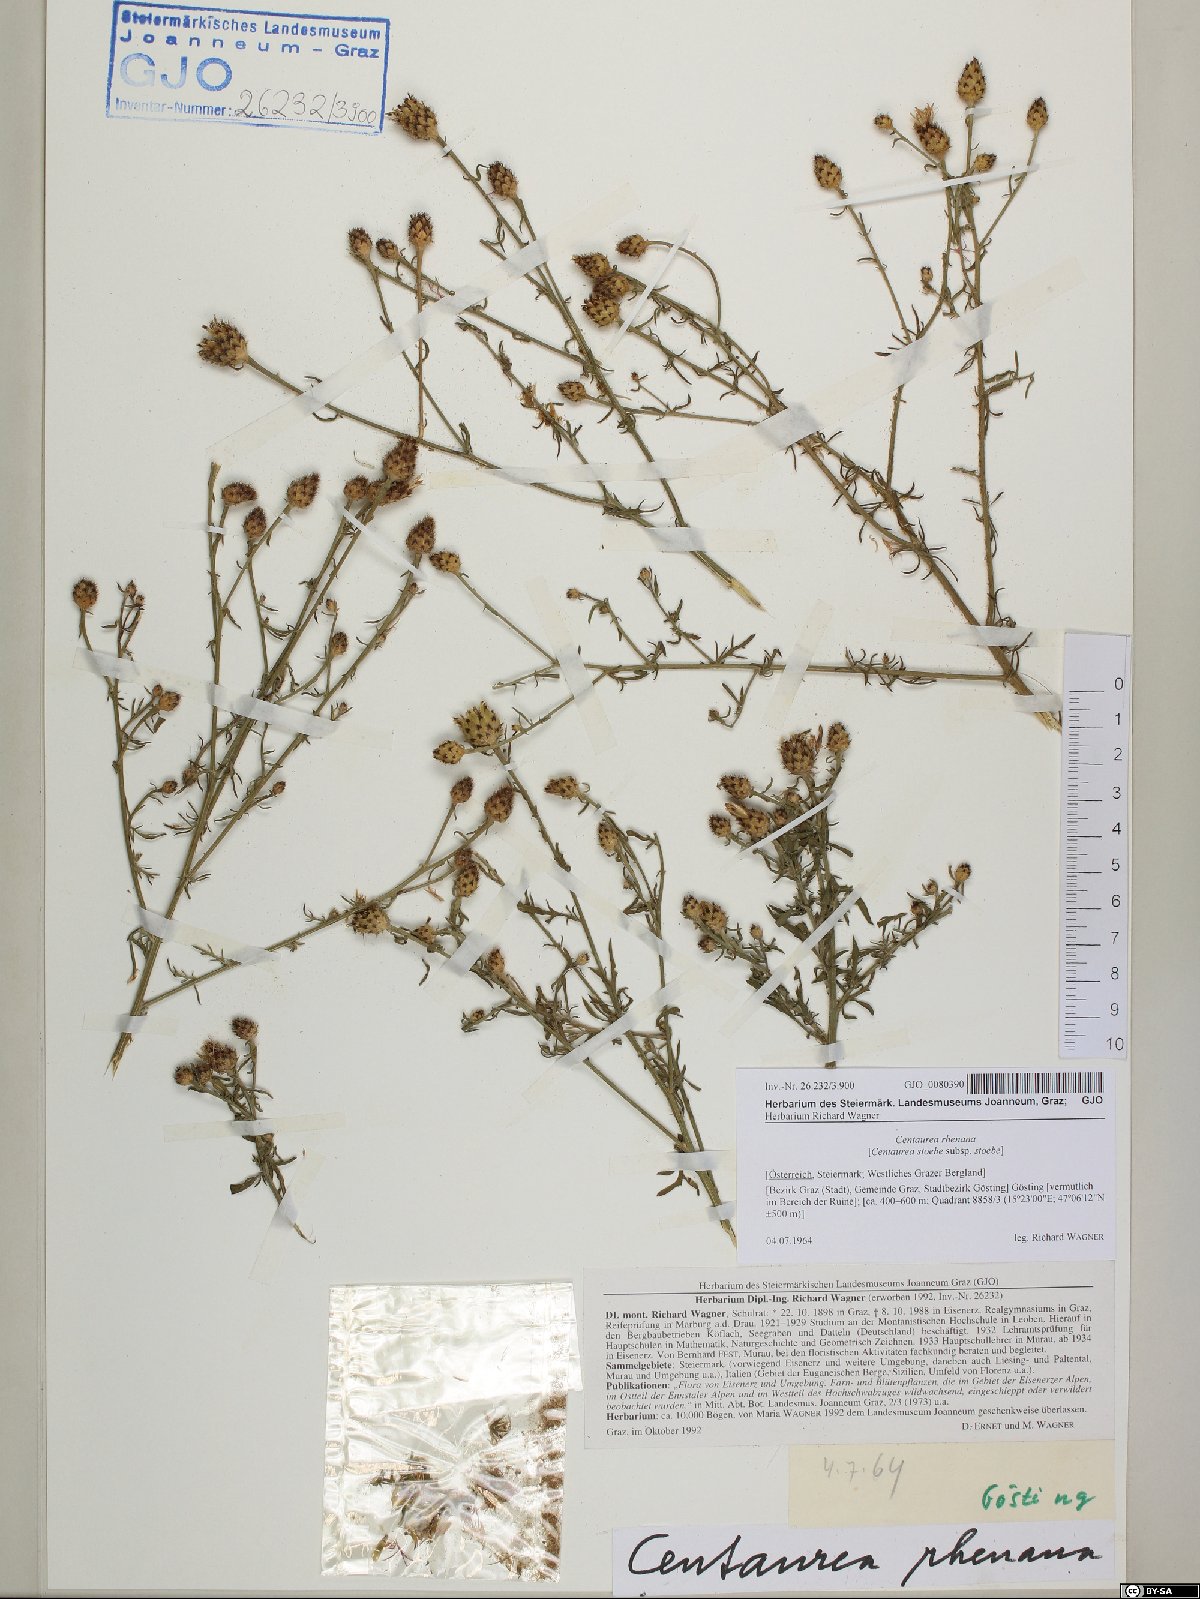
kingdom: Plantae
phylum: Tracheophyta
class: Magnoliopsida
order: Asterales
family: Asteraceae
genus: Centaurea
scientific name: Centaurea stoebe
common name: Spotted knapweed
